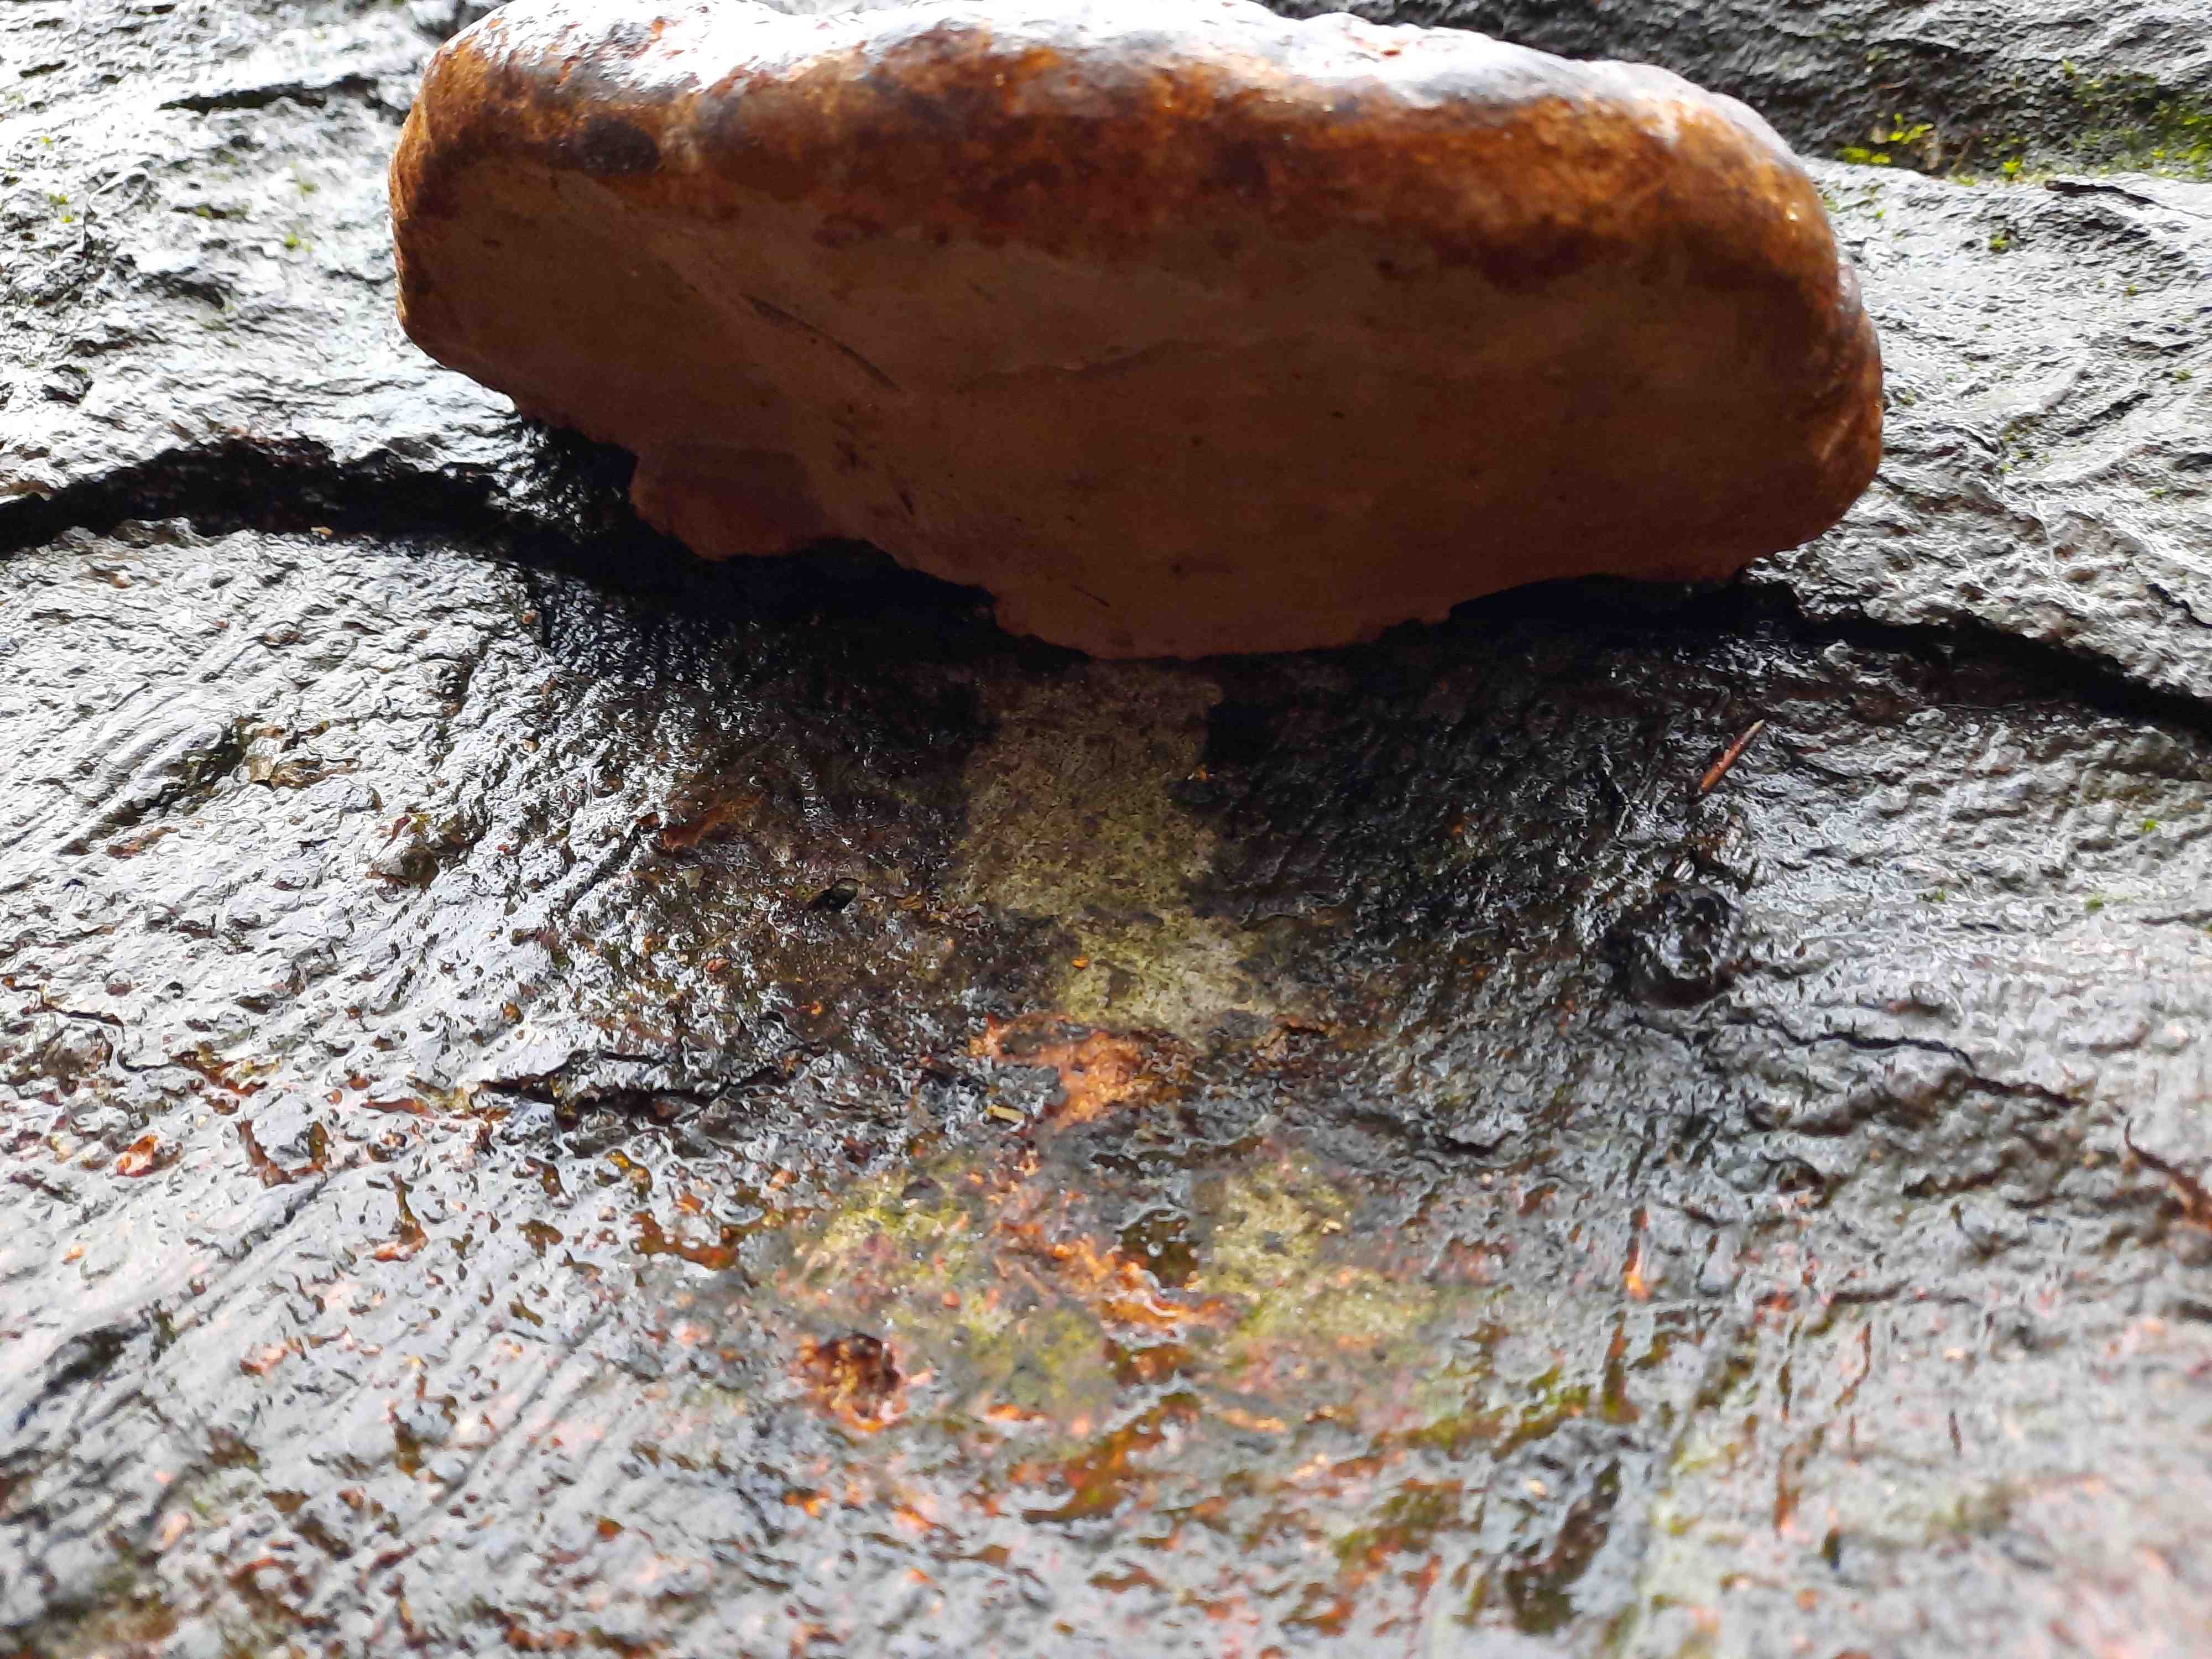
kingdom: Fungi
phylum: Basidiomycota
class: Agaricomycetes
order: Polyporales
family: Polyporaceae
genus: Fomes
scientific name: Fomes fomentarius
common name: tøndersvamp
